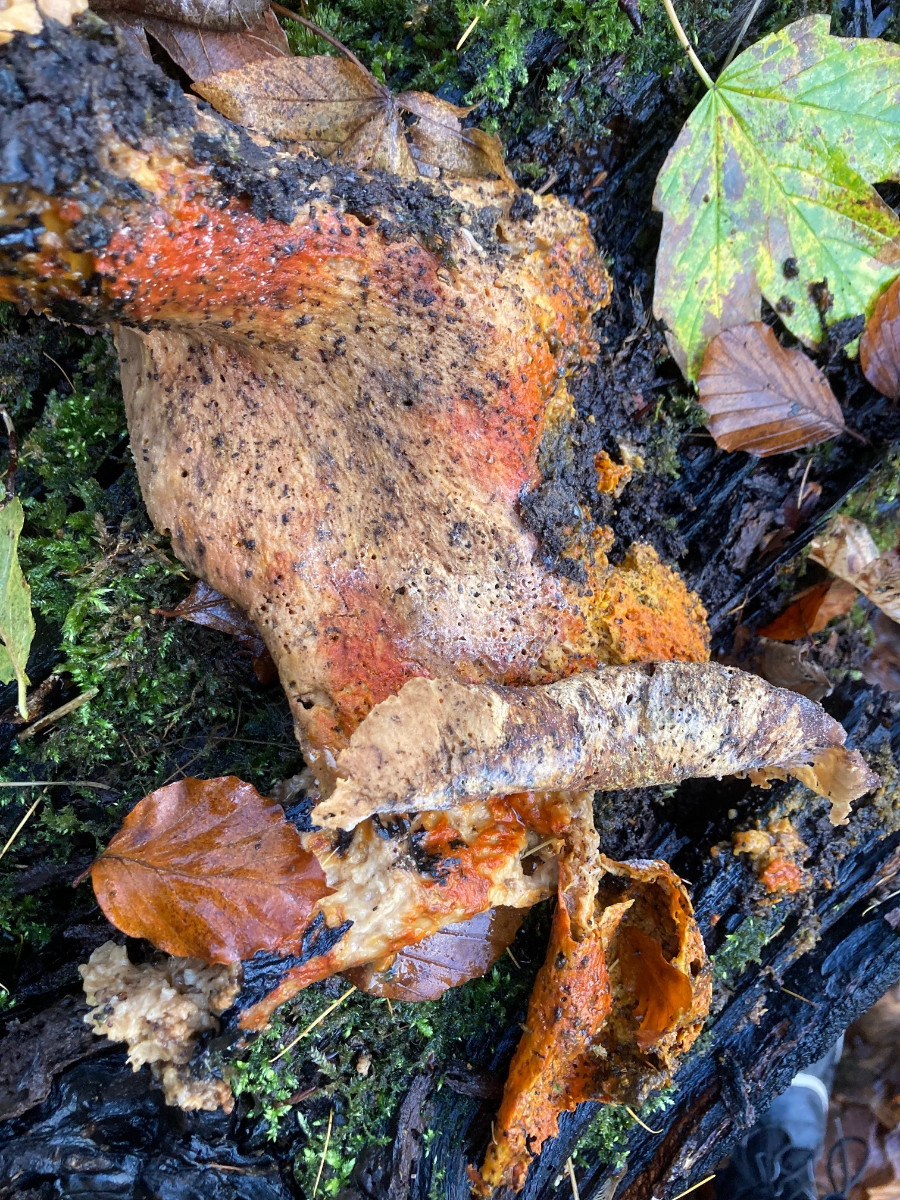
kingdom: Fungi
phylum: Ascomycota
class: Sordariomycetes
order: Hypocreales
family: Hypocreaceae
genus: Hypomyces
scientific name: Hypomyces aurantius
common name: almindelig snylteskorpe
